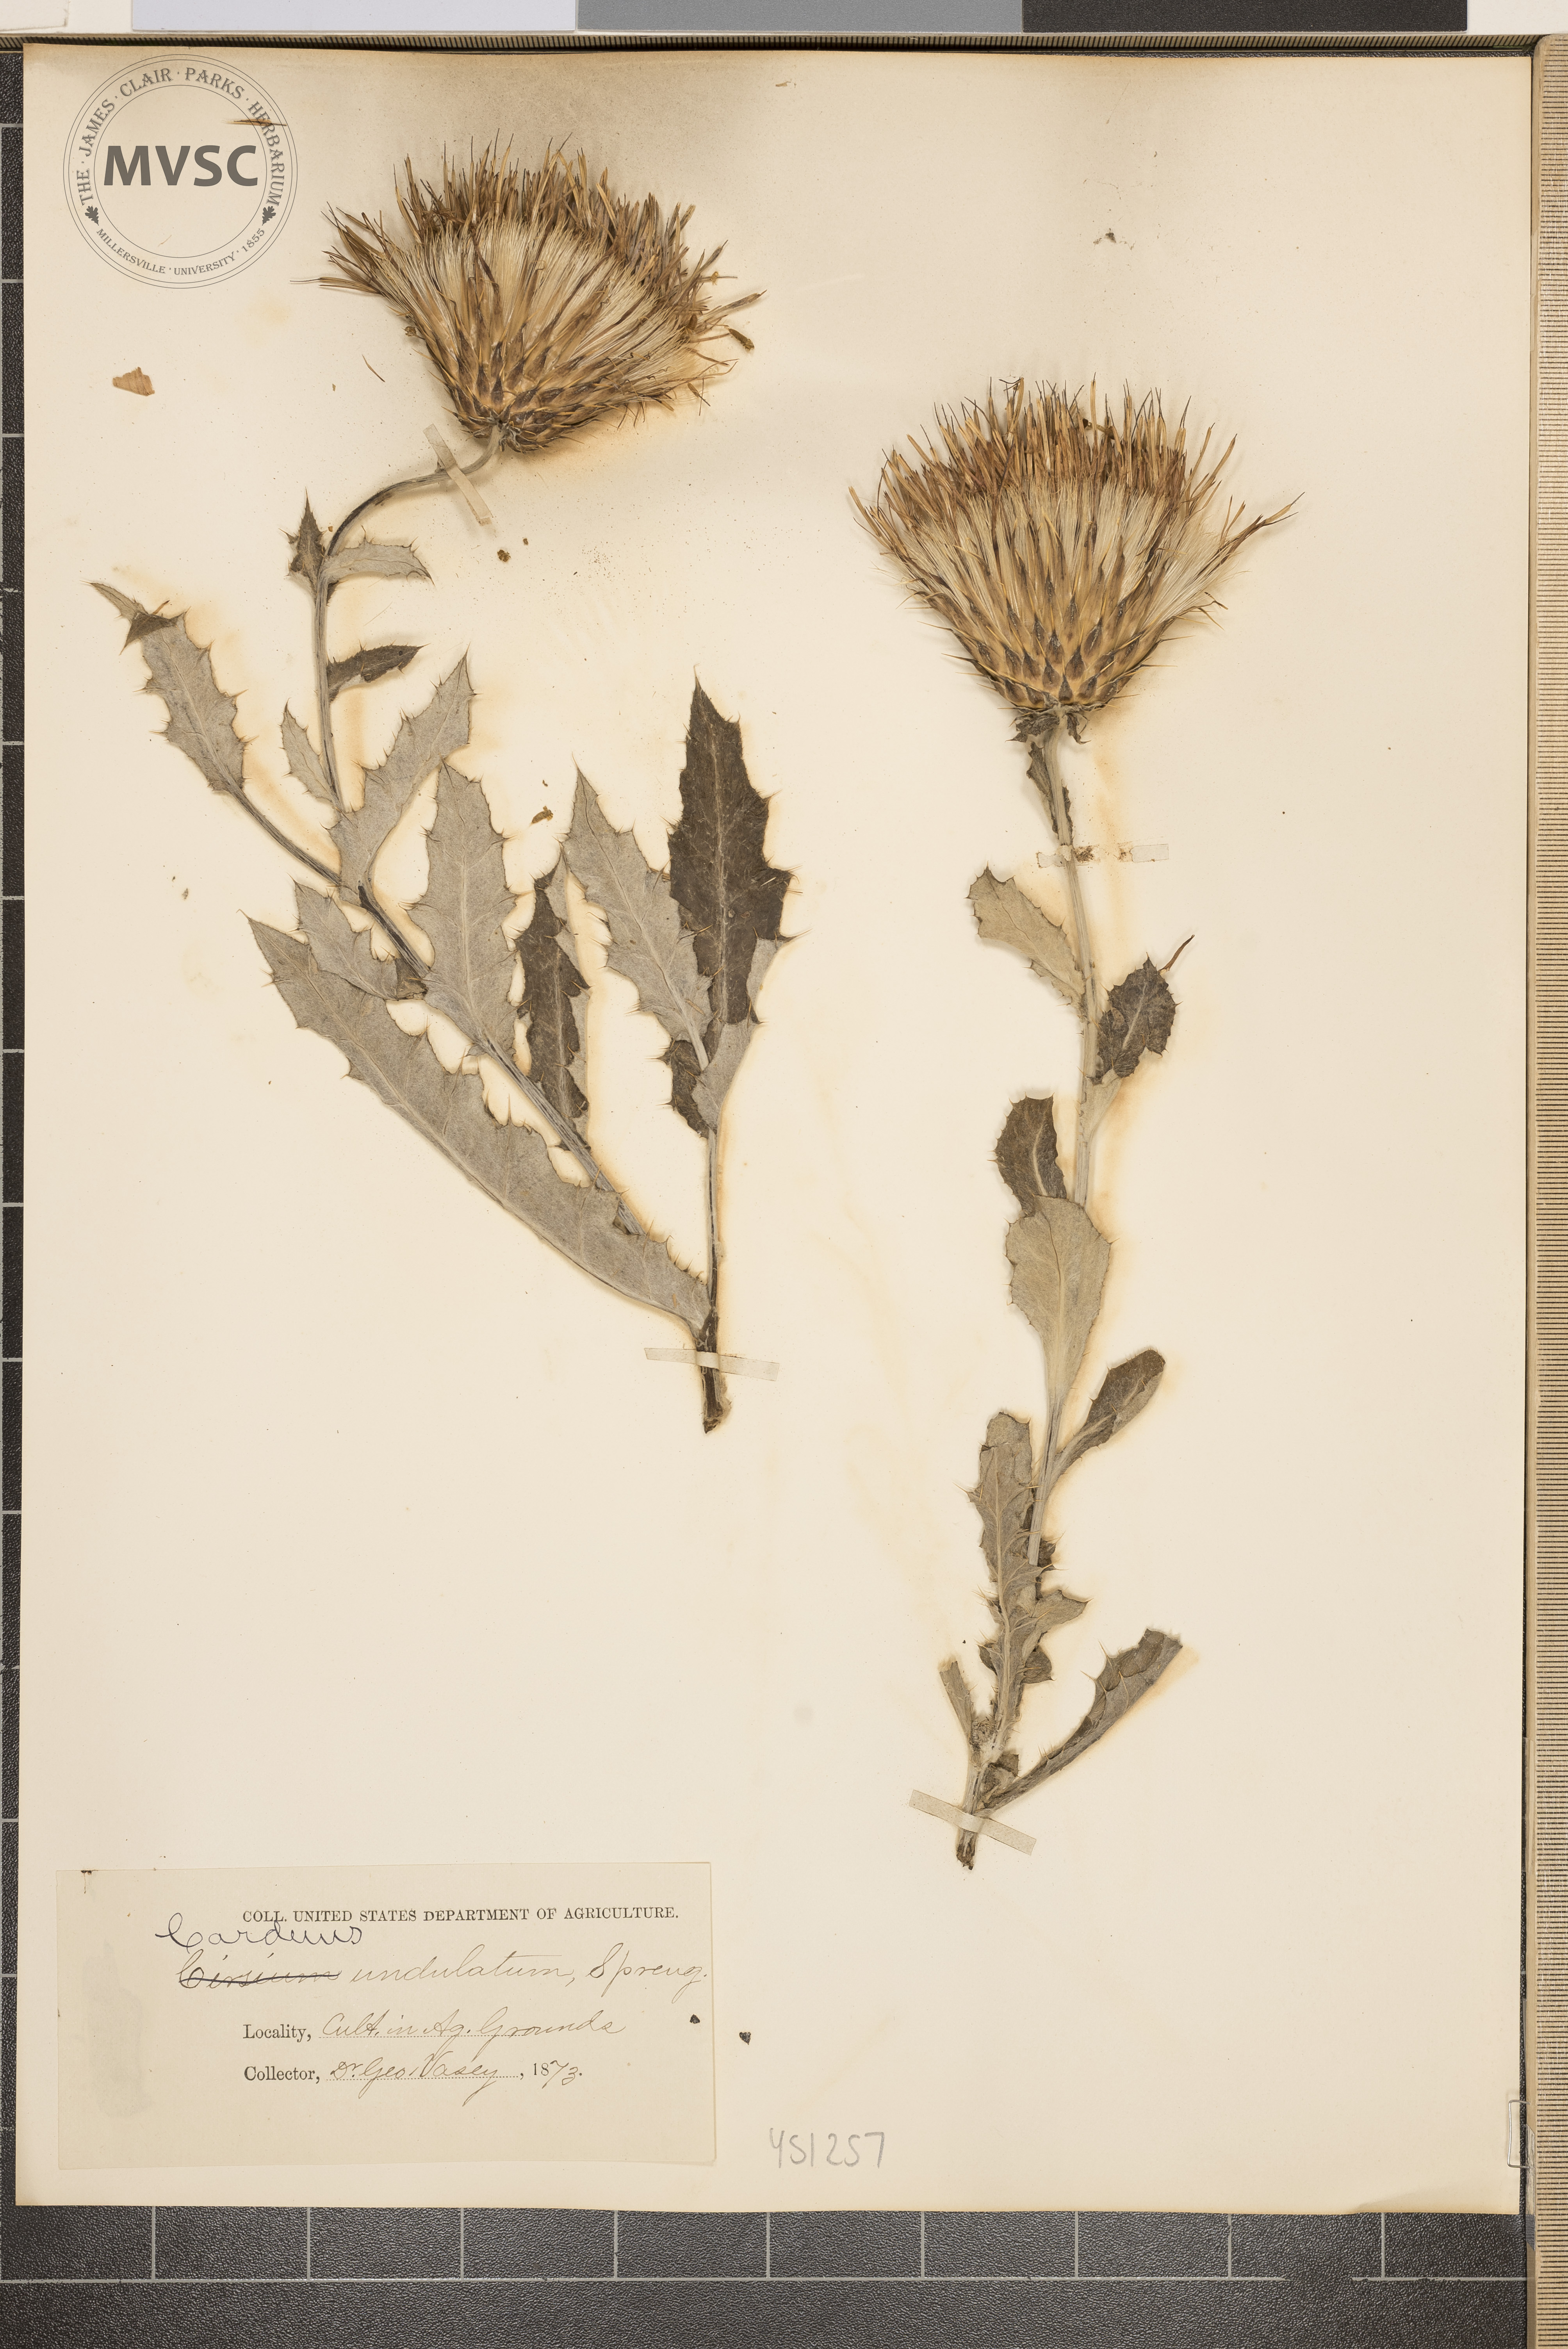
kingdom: Plantae
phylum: Tracheophyta
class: Magnoliopsida
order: Asterales
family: Asteraceae
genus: Cirsium
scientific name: Cirsium undulatum
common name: Pasture thistle
